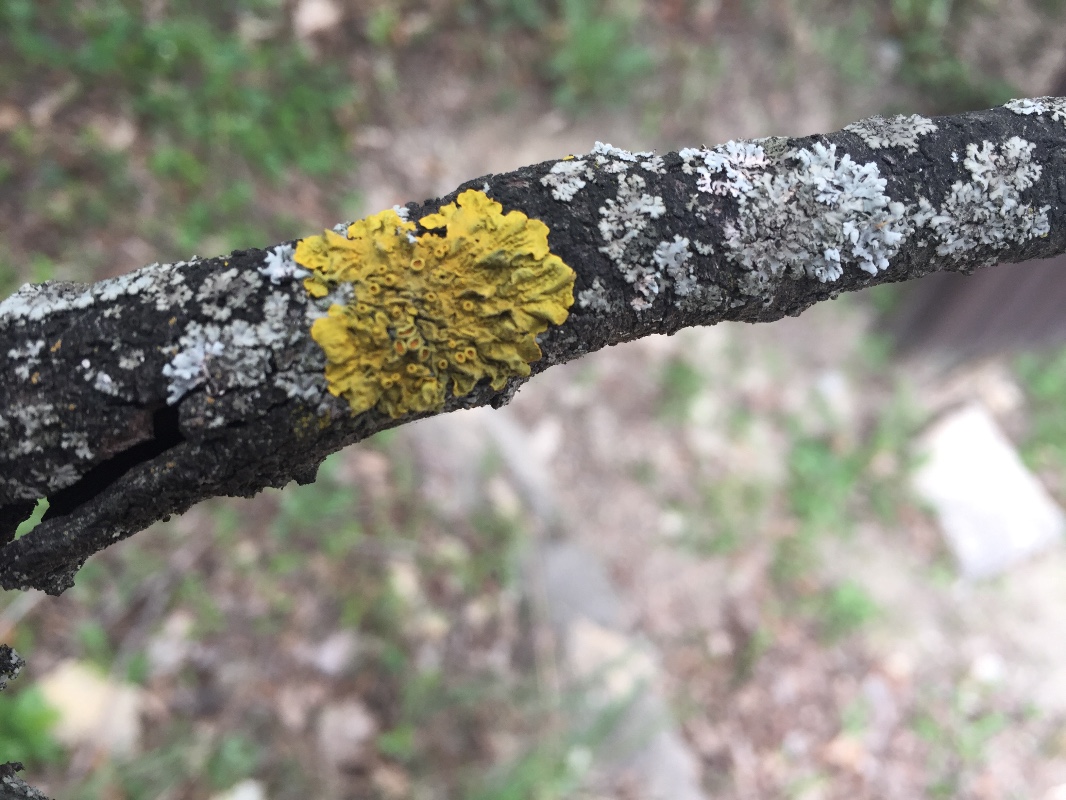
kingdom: Fungi
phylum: Ascomycota
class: Lecanoromycetes
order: Teloschistales
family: Teloschistaceae
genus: Xanthoria
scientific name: Xanthoria parietina
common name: almindelig væggelav
